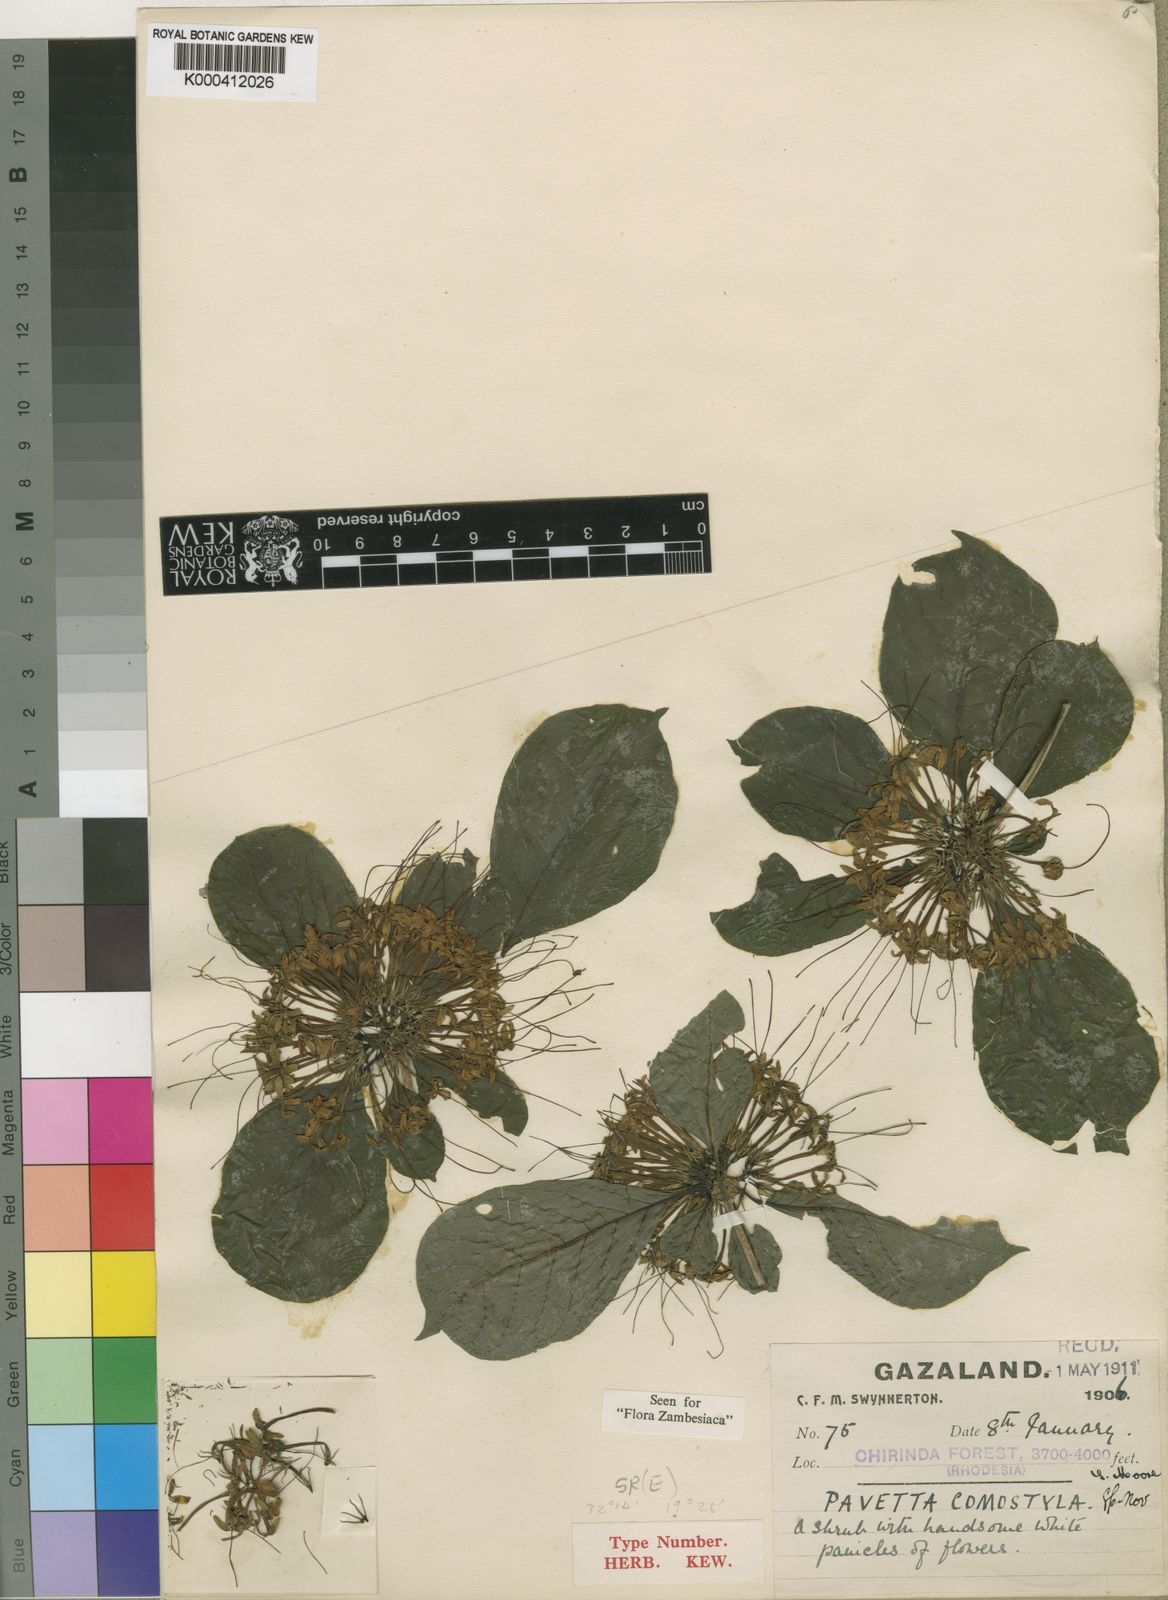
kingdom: Plantae
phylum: Tracheophyta
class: Magnoliopsida
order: Gentianales
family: Rubiaceae
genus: Pavetta
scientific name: Pavetta comostyla
